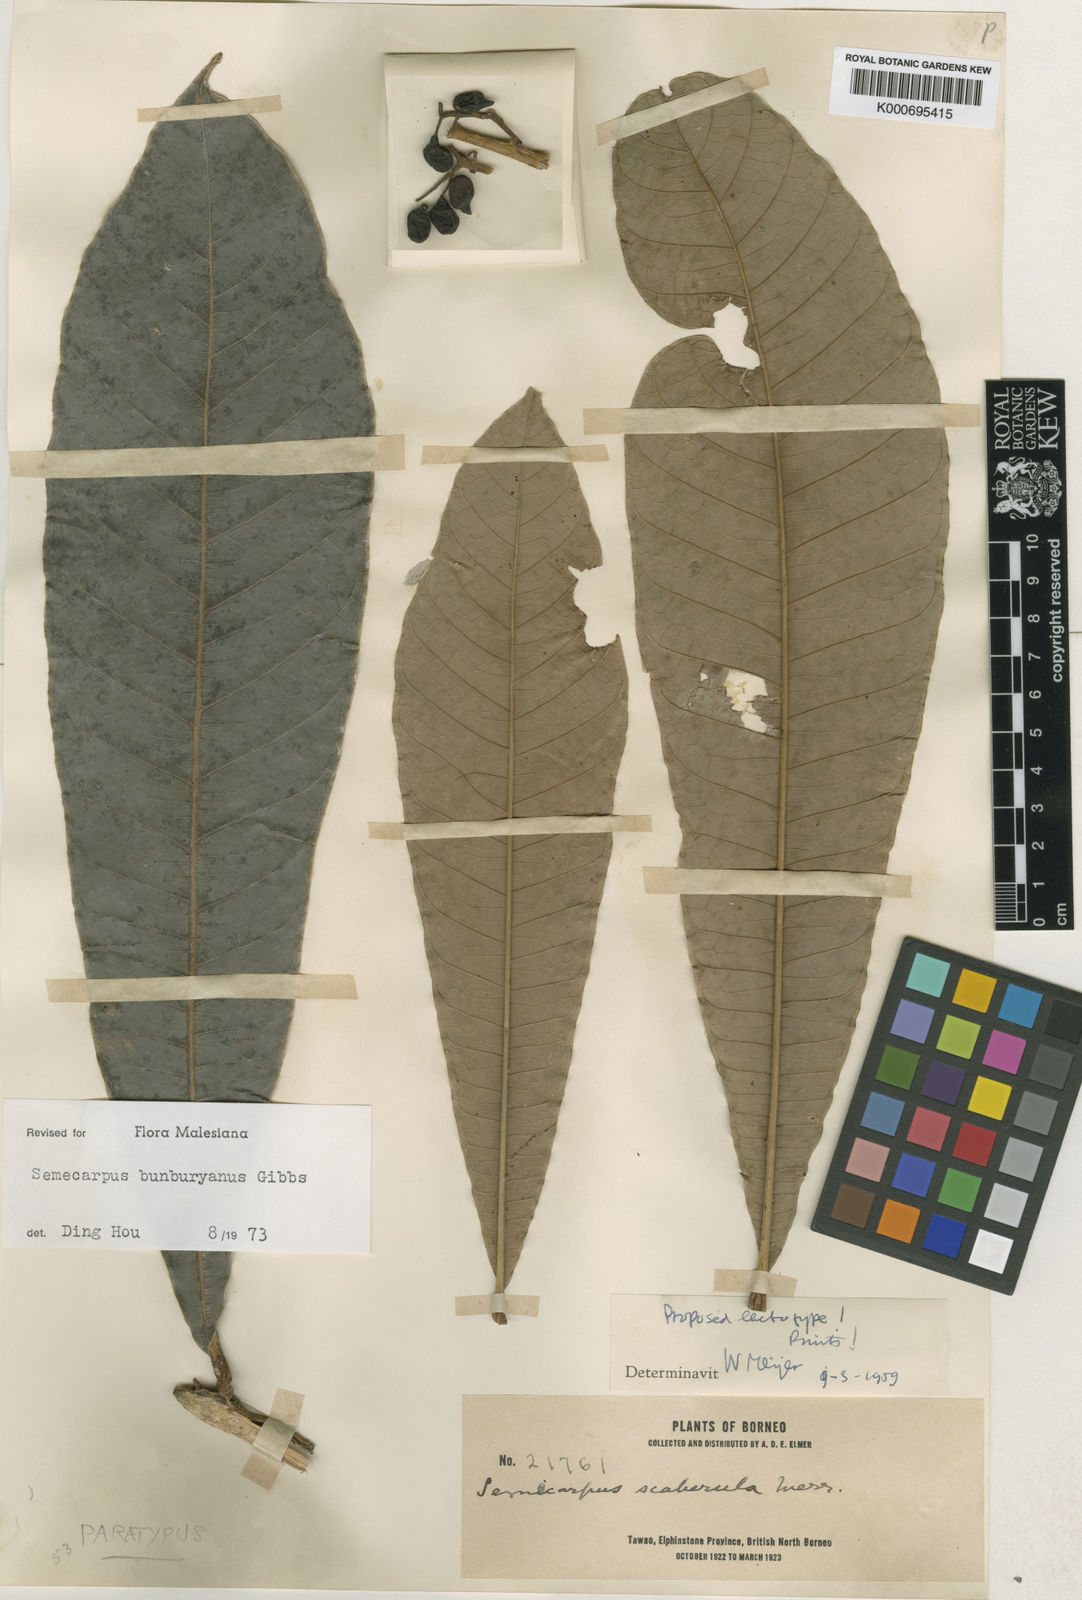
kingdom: Plantae
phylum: Tracheophyta
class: Magnoliopsida
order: Sapindales
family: Anacardiaceae
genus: Semecarpus
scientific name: Semecarpus
